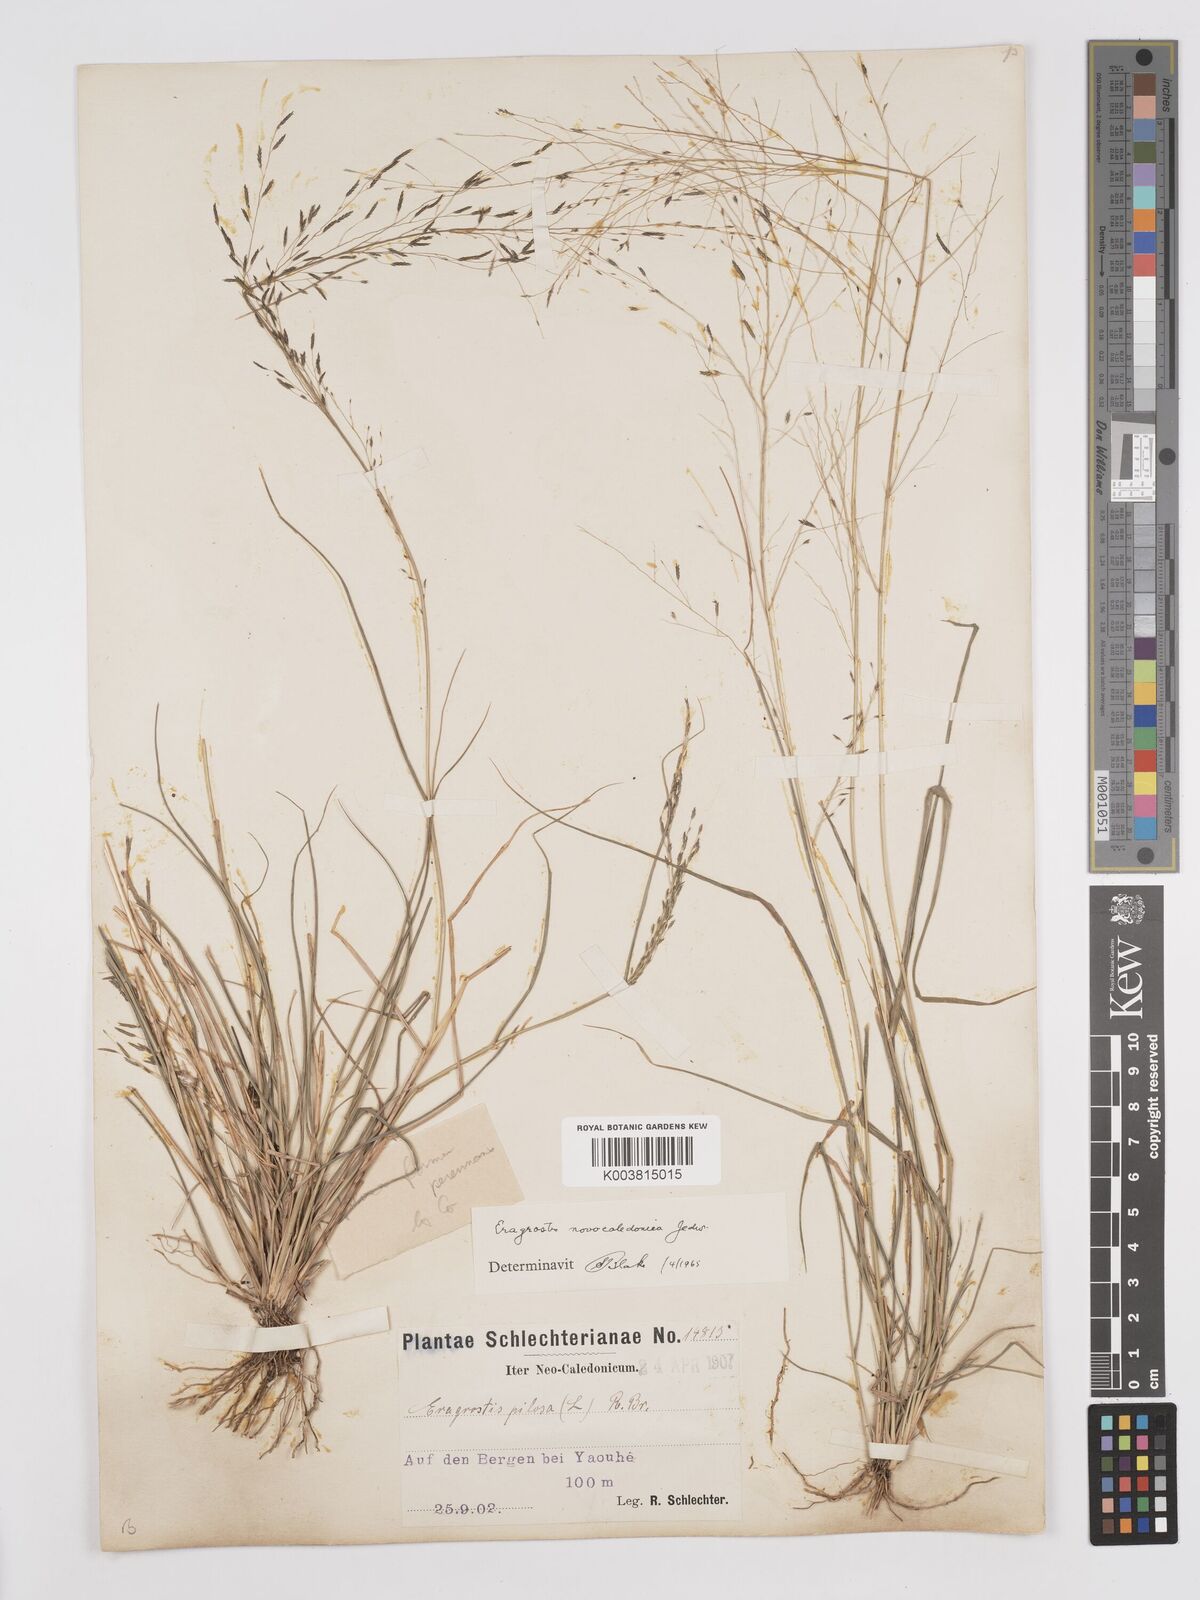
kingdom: Plantae
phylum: Tracheophyta
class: Liliopsida
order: Poales
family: Poaceae
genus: Eragrostis
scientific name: Eragrostis parviflora
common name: Weeping love-grass
